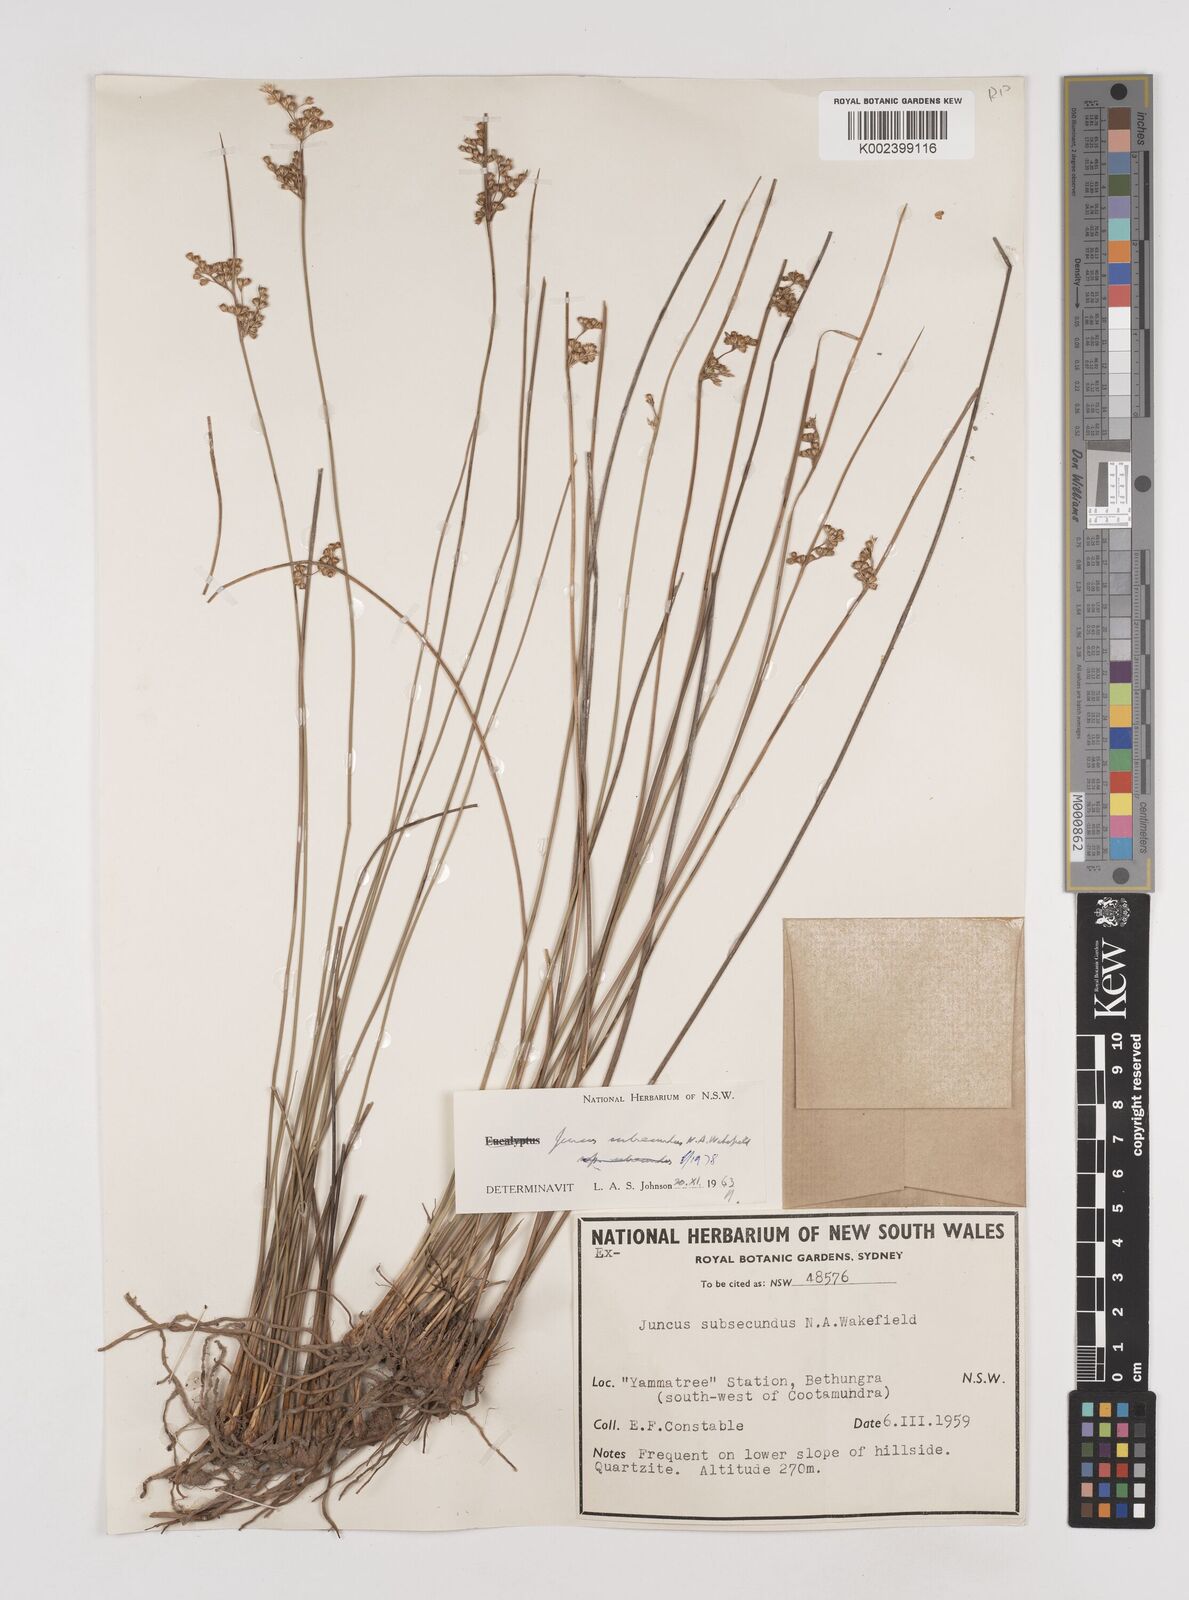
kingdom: Plantae
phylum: Tracheophyta
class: Liliopsida
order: Poales
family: Juncaceae
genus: Juncus
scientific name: Juncus subsecundus
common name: Fingered rush
